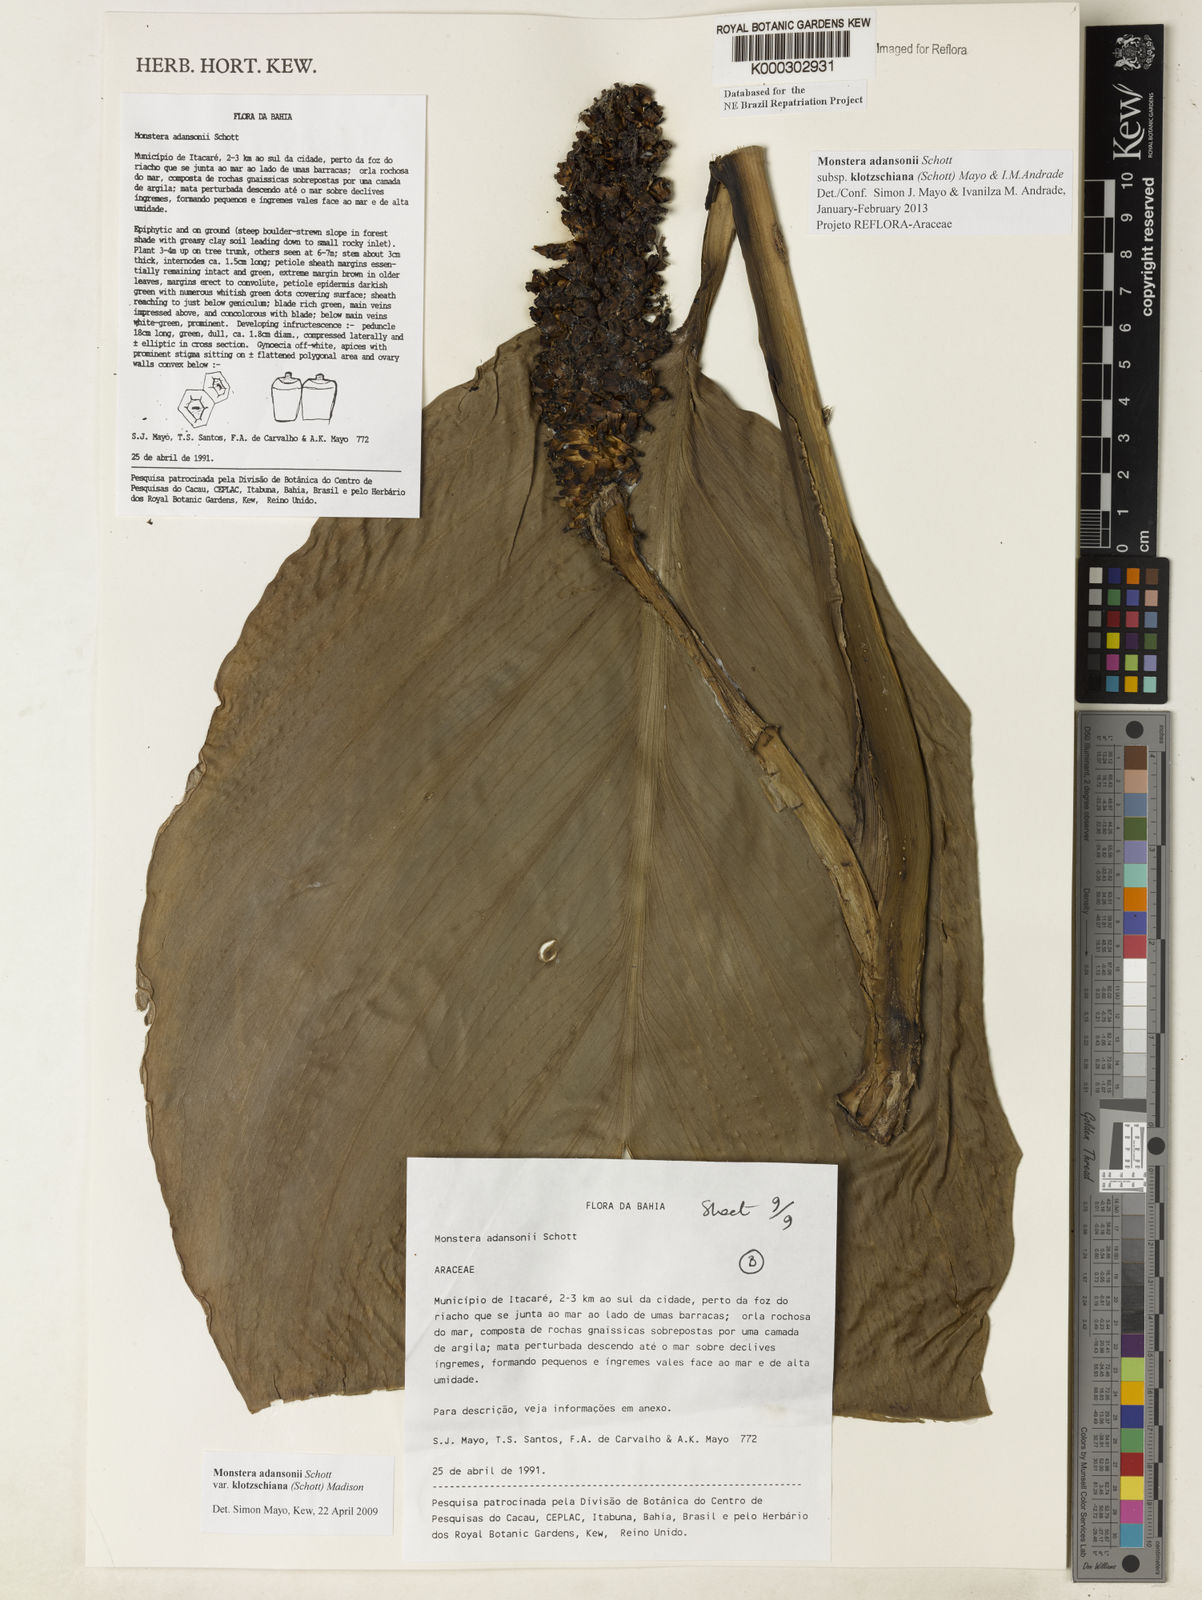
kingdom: Plantae
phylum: Tracheophyta
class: Liliopsida
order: Alismatales
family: Araceae
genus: Monstera
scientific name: Monstera adansonii
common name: Tarovine
